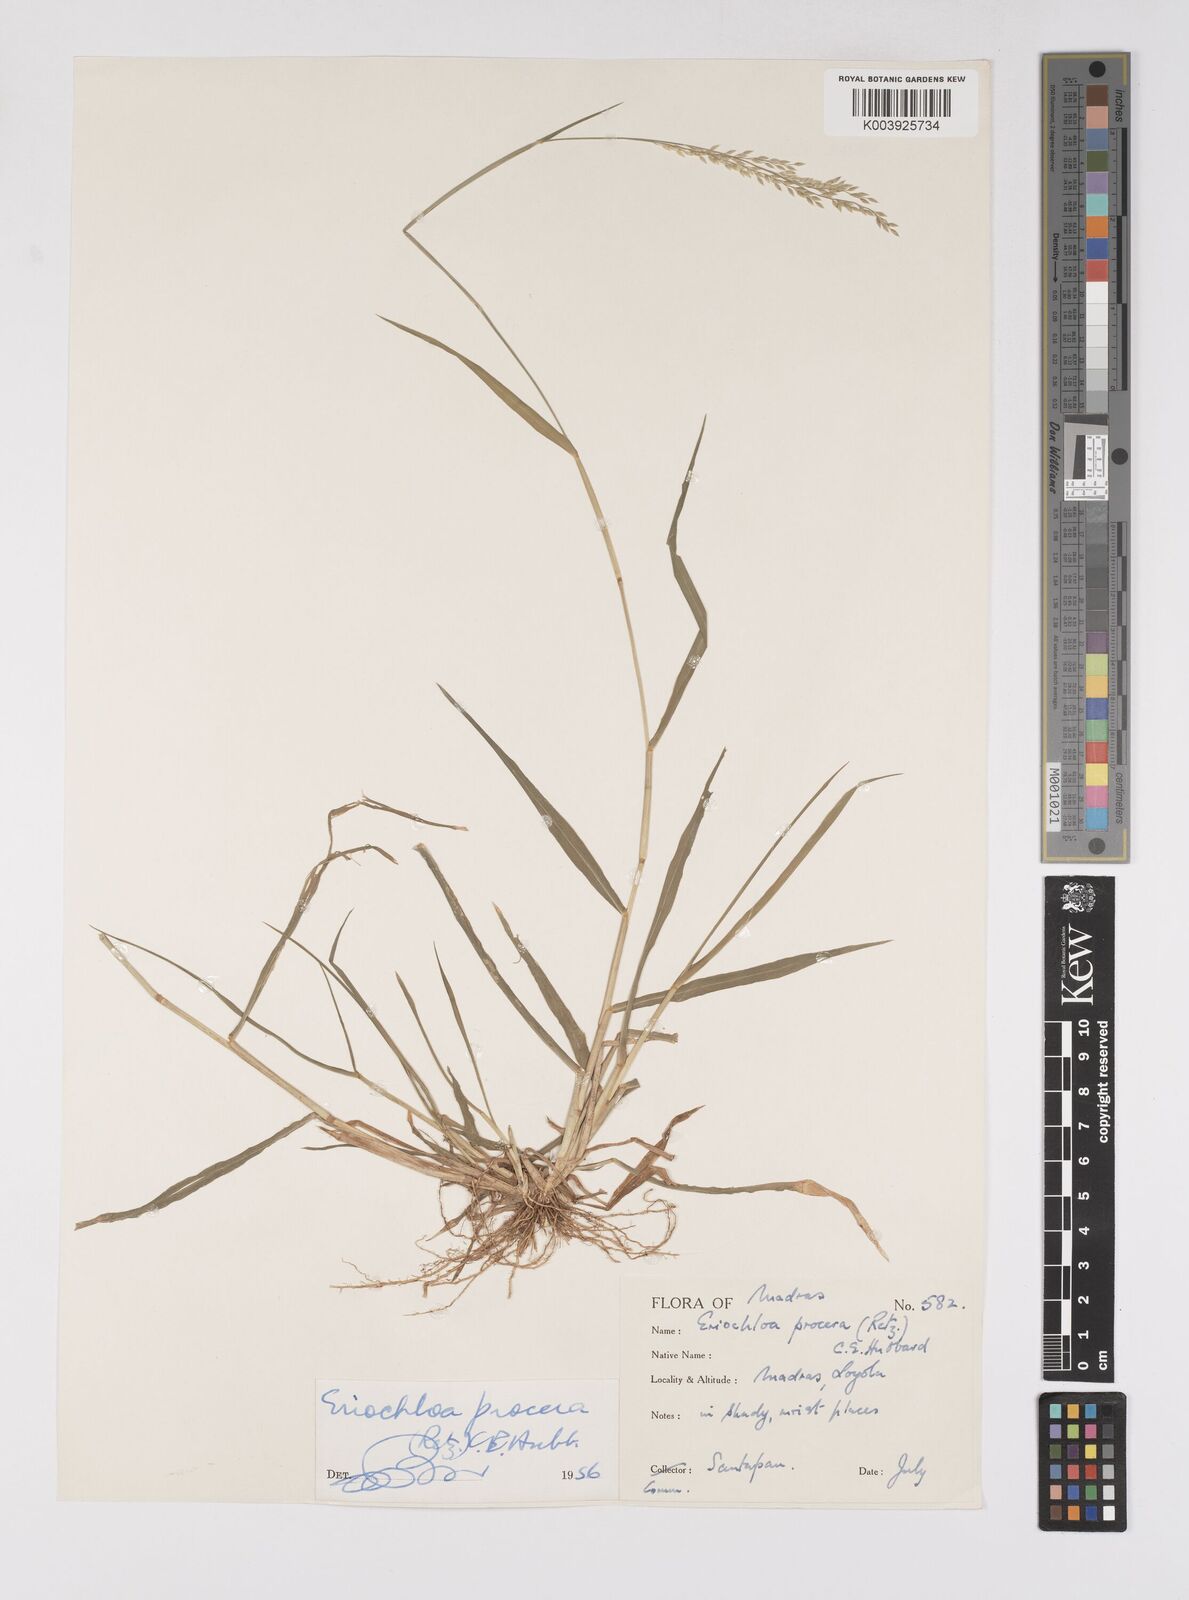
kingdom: Plantae
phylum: Tracheophyta
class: Liliopsida
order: Poales
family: Poaceae
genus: Eriochloa
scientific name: Eriochloa procera
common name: Spring grass
